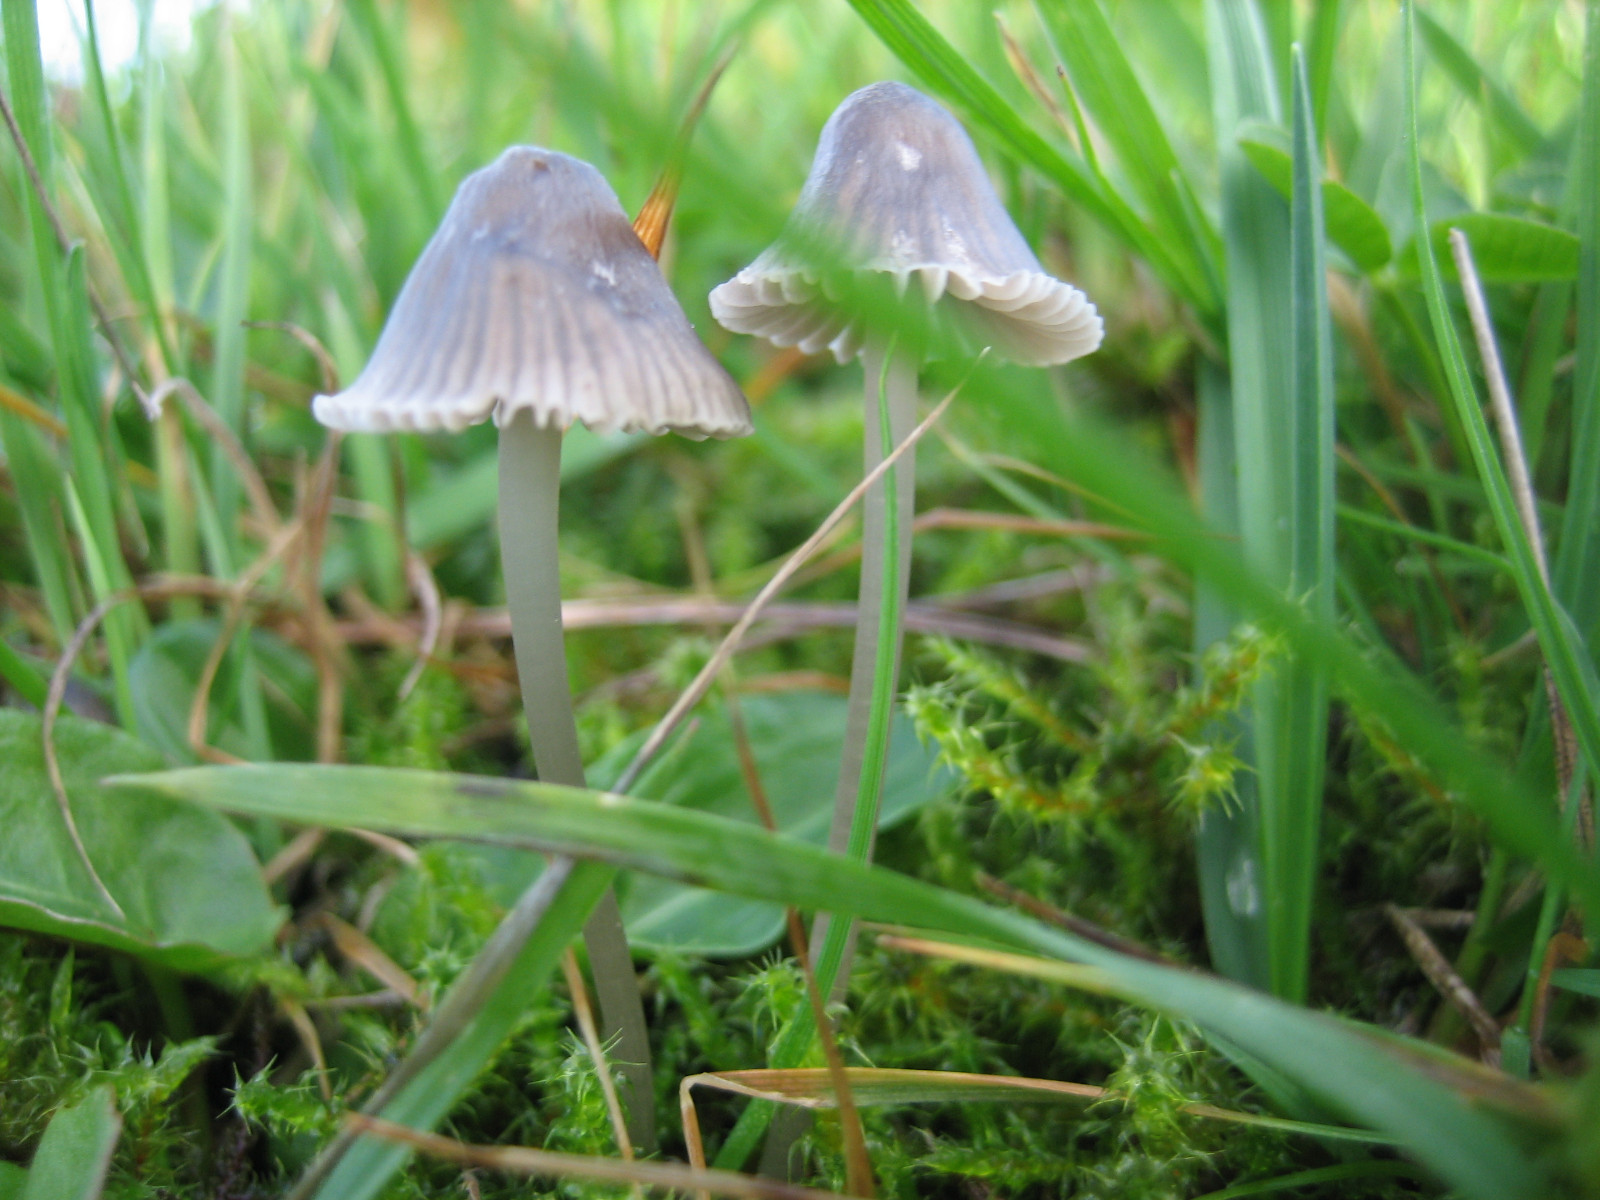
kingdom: Fungi
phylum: Basidiomycota
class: Agaricomycetes
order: Agaricales
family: Mycenaceae
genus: Mycena
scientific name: Mycena aetites
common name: plæne-huesvamp
